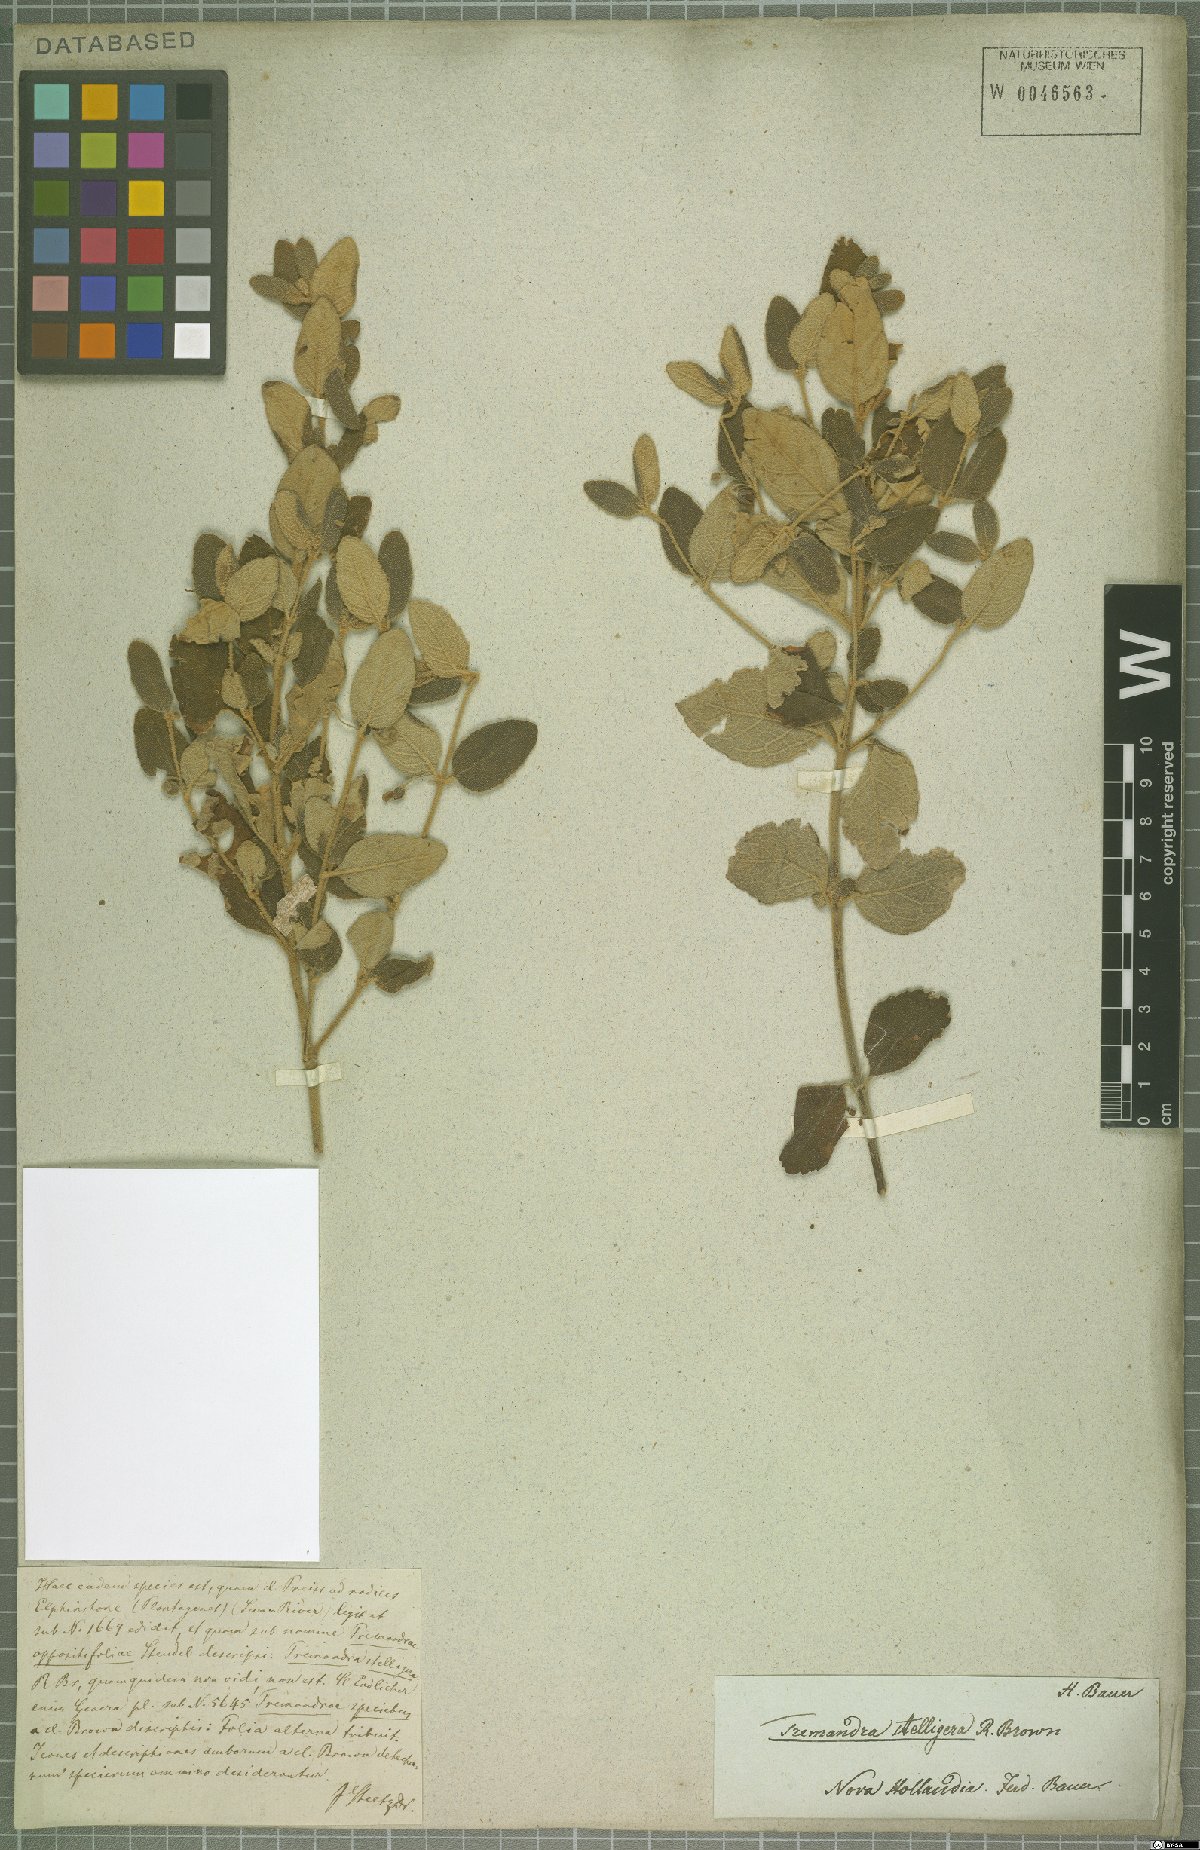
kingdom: Plantae
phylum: Tracheophyta
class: Magnoliopsida
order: Oxalidales
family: Elaeocarpaceae
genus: Tremandra
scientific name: Tremandra stelligera
